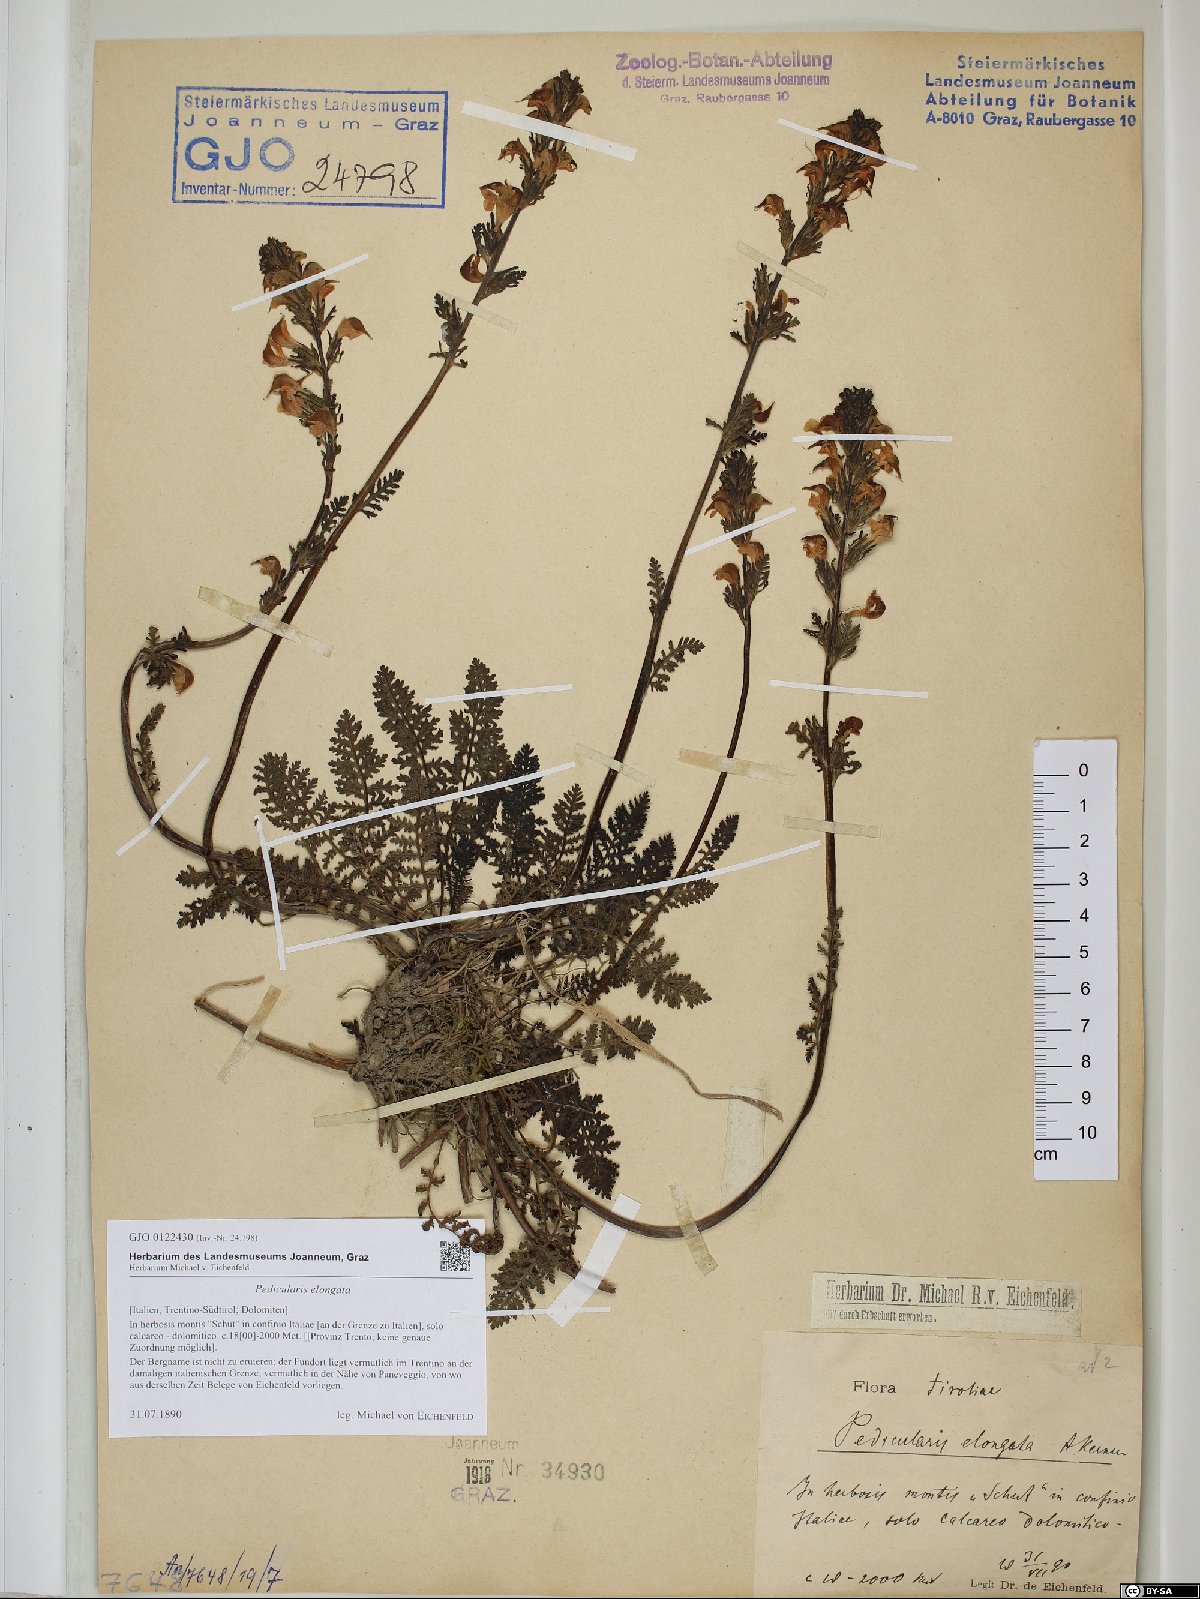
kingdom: Plantae
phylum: Tracheophyta
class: Magnoliopsida
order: Lamiales
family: Orobanchaceae
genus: Pedicularis
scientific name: Pedicularis elongata
